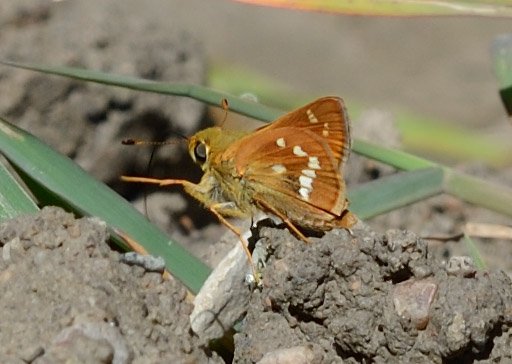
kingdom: Animalia
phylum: Arthropoda
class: Insecta
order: Lepidoptera
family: Hesperiidae
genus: Hesperia
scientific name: Hesperia leonardus
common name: Leonard's Skipper
